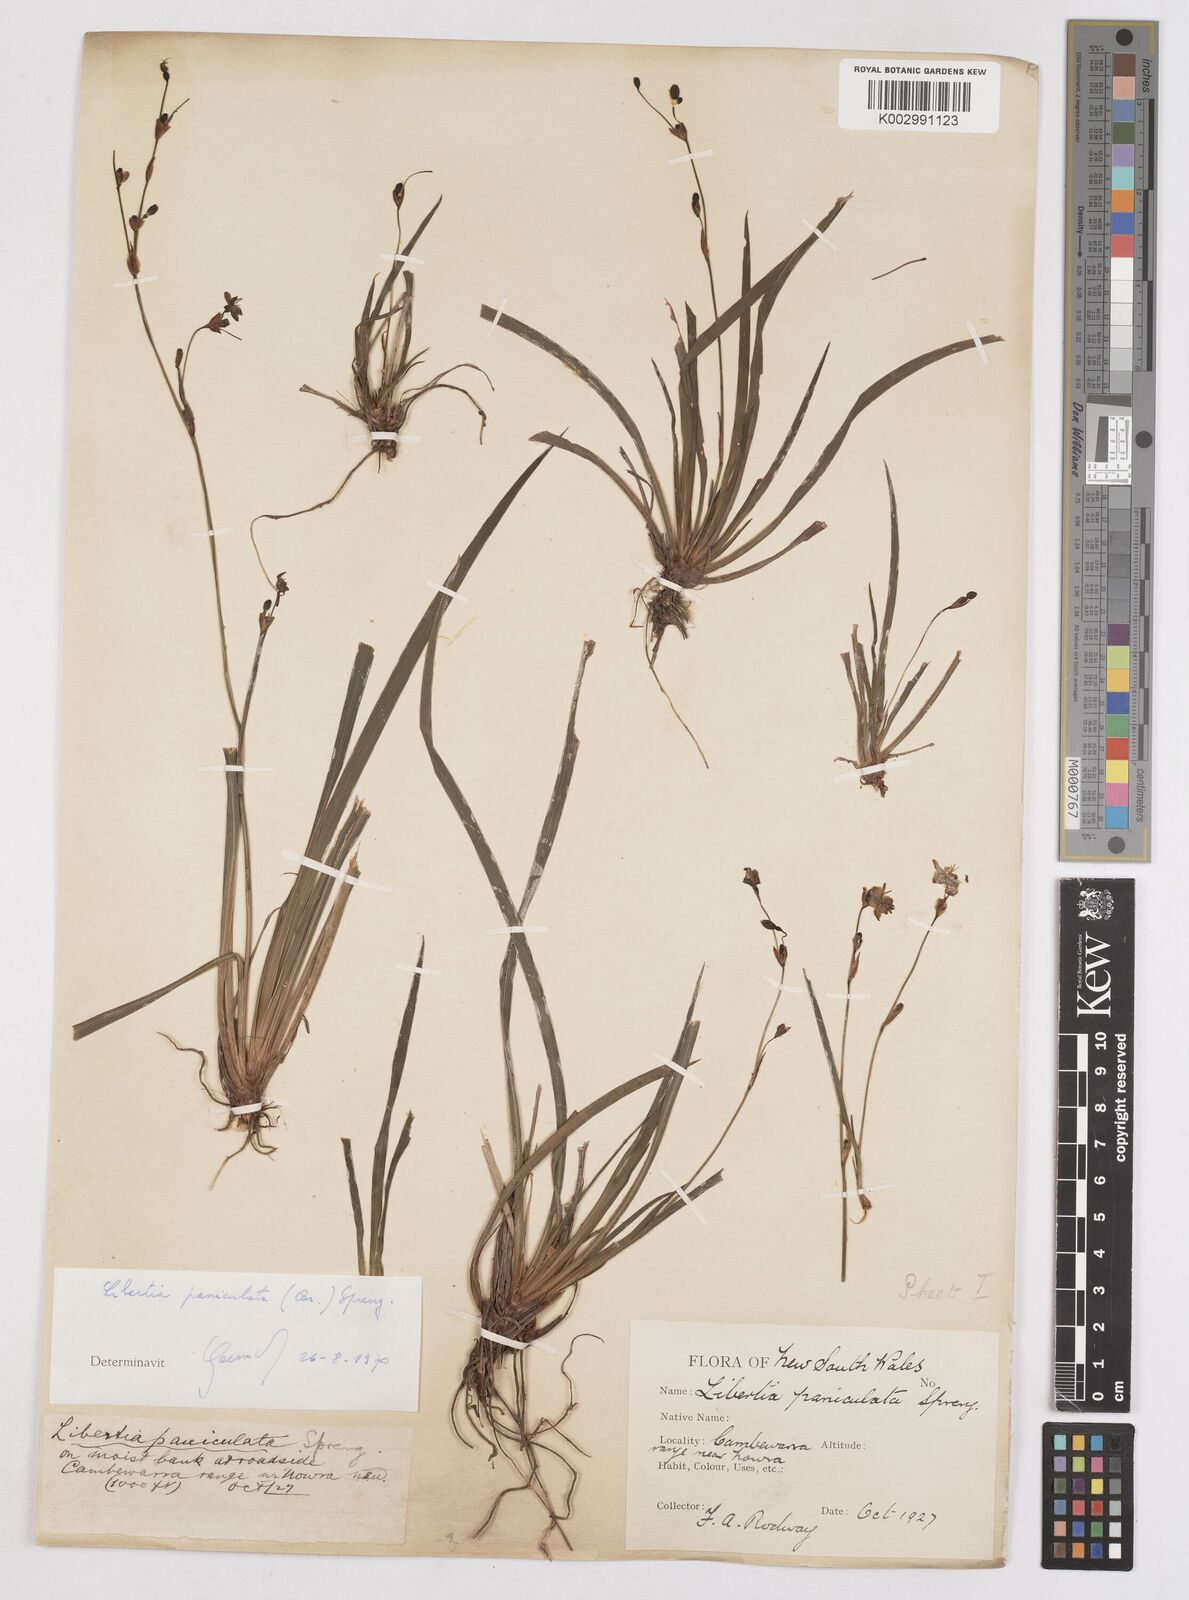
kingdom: Plantae
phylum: Tracheophyta
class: Liliopsida
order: Asparagales
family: Iridaceae
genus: Libertia
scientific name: Libertia paniculata
